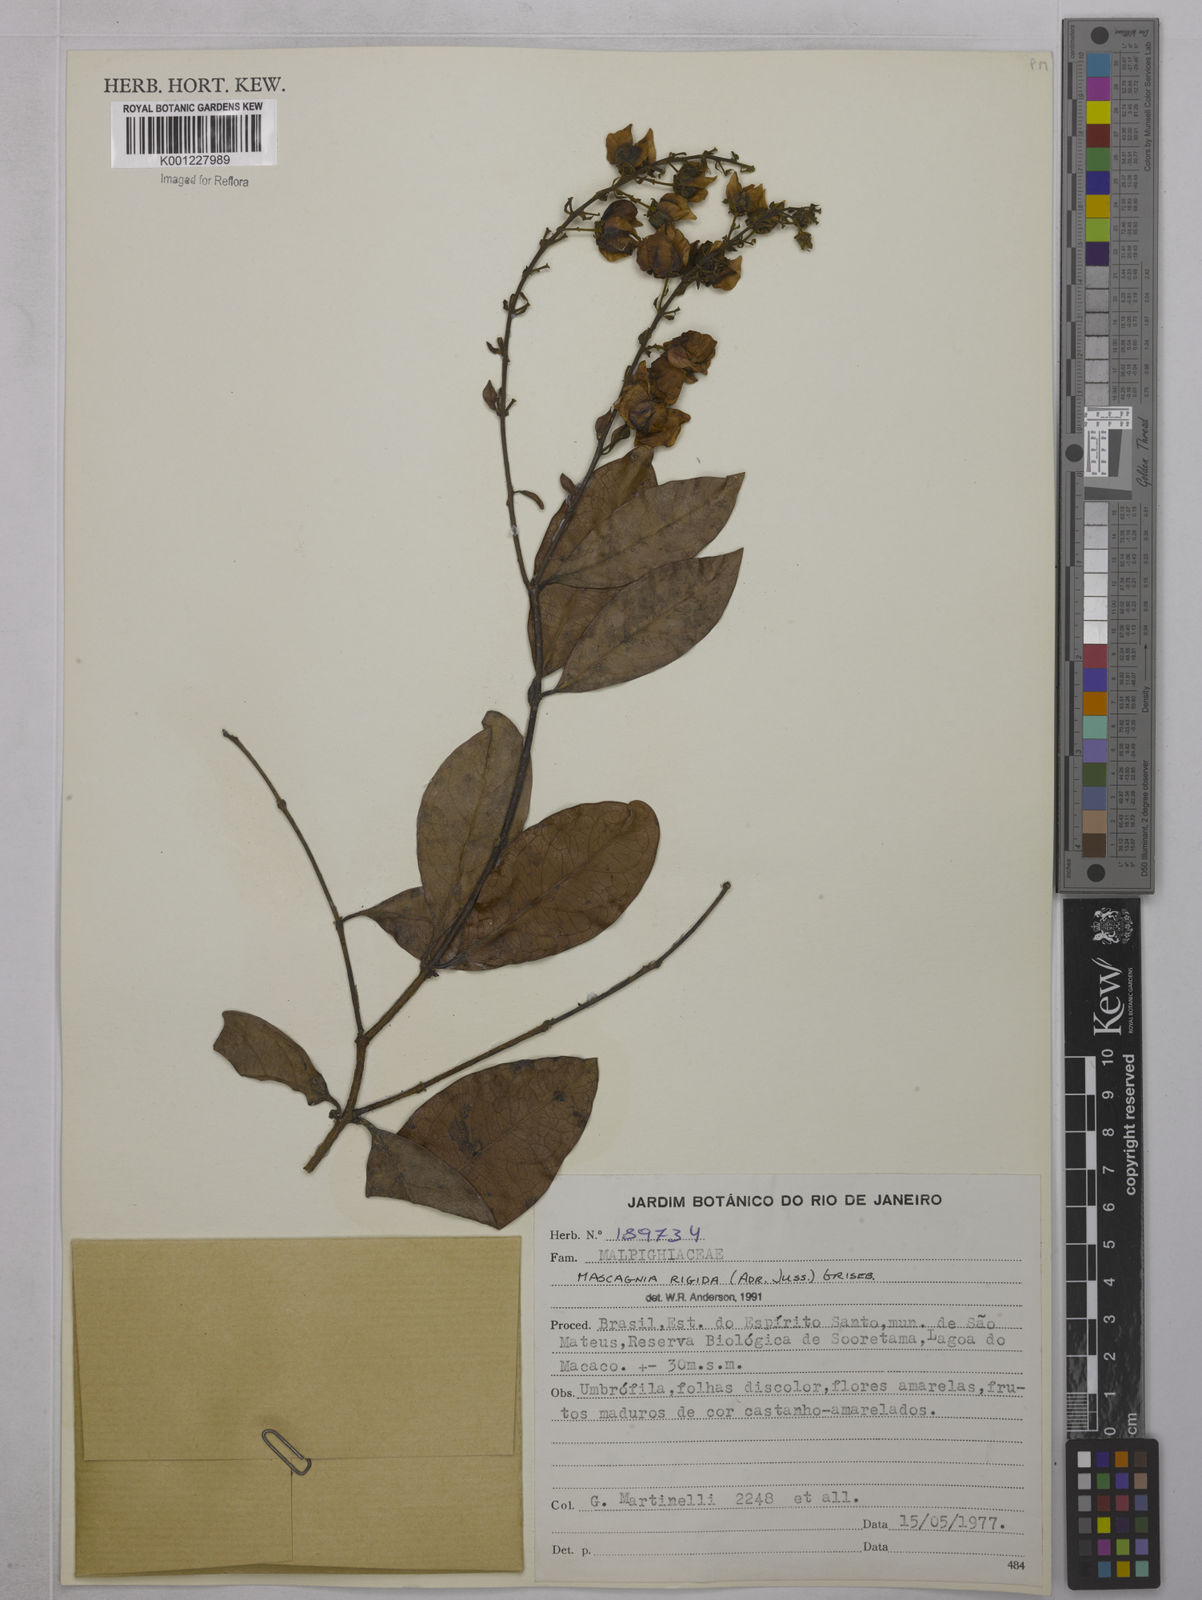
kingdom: Plantae
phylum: Tracheophyta
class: Magnoliopsida
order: Malpighiales
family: Malpighiaceae
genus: Amorimia
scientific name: Amorimia rigida
